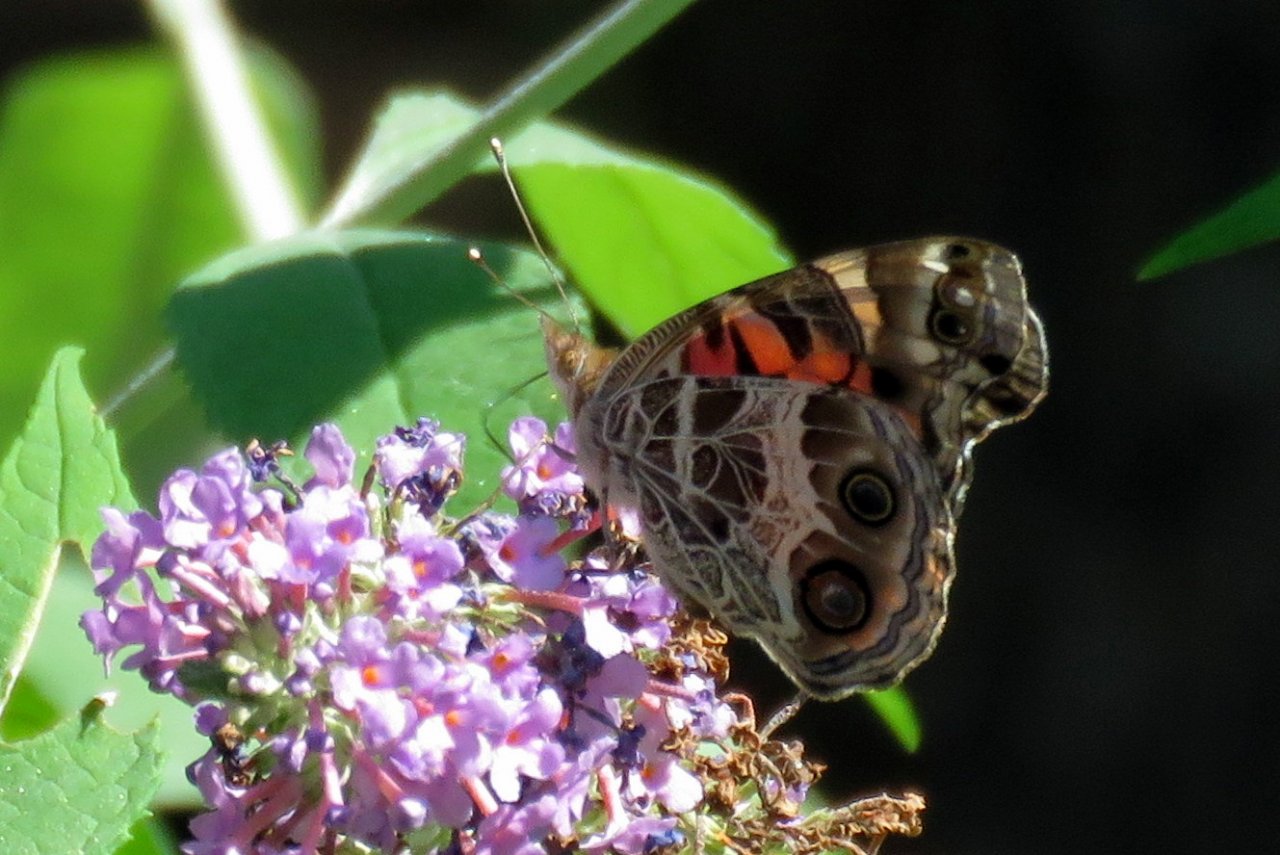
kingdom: Animalia
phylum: Arthropoda
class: Insecta
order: Lepidoptera
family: Nymphalidae
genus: Vanessa
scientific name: Vanessa virginiensis
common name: American Lady
